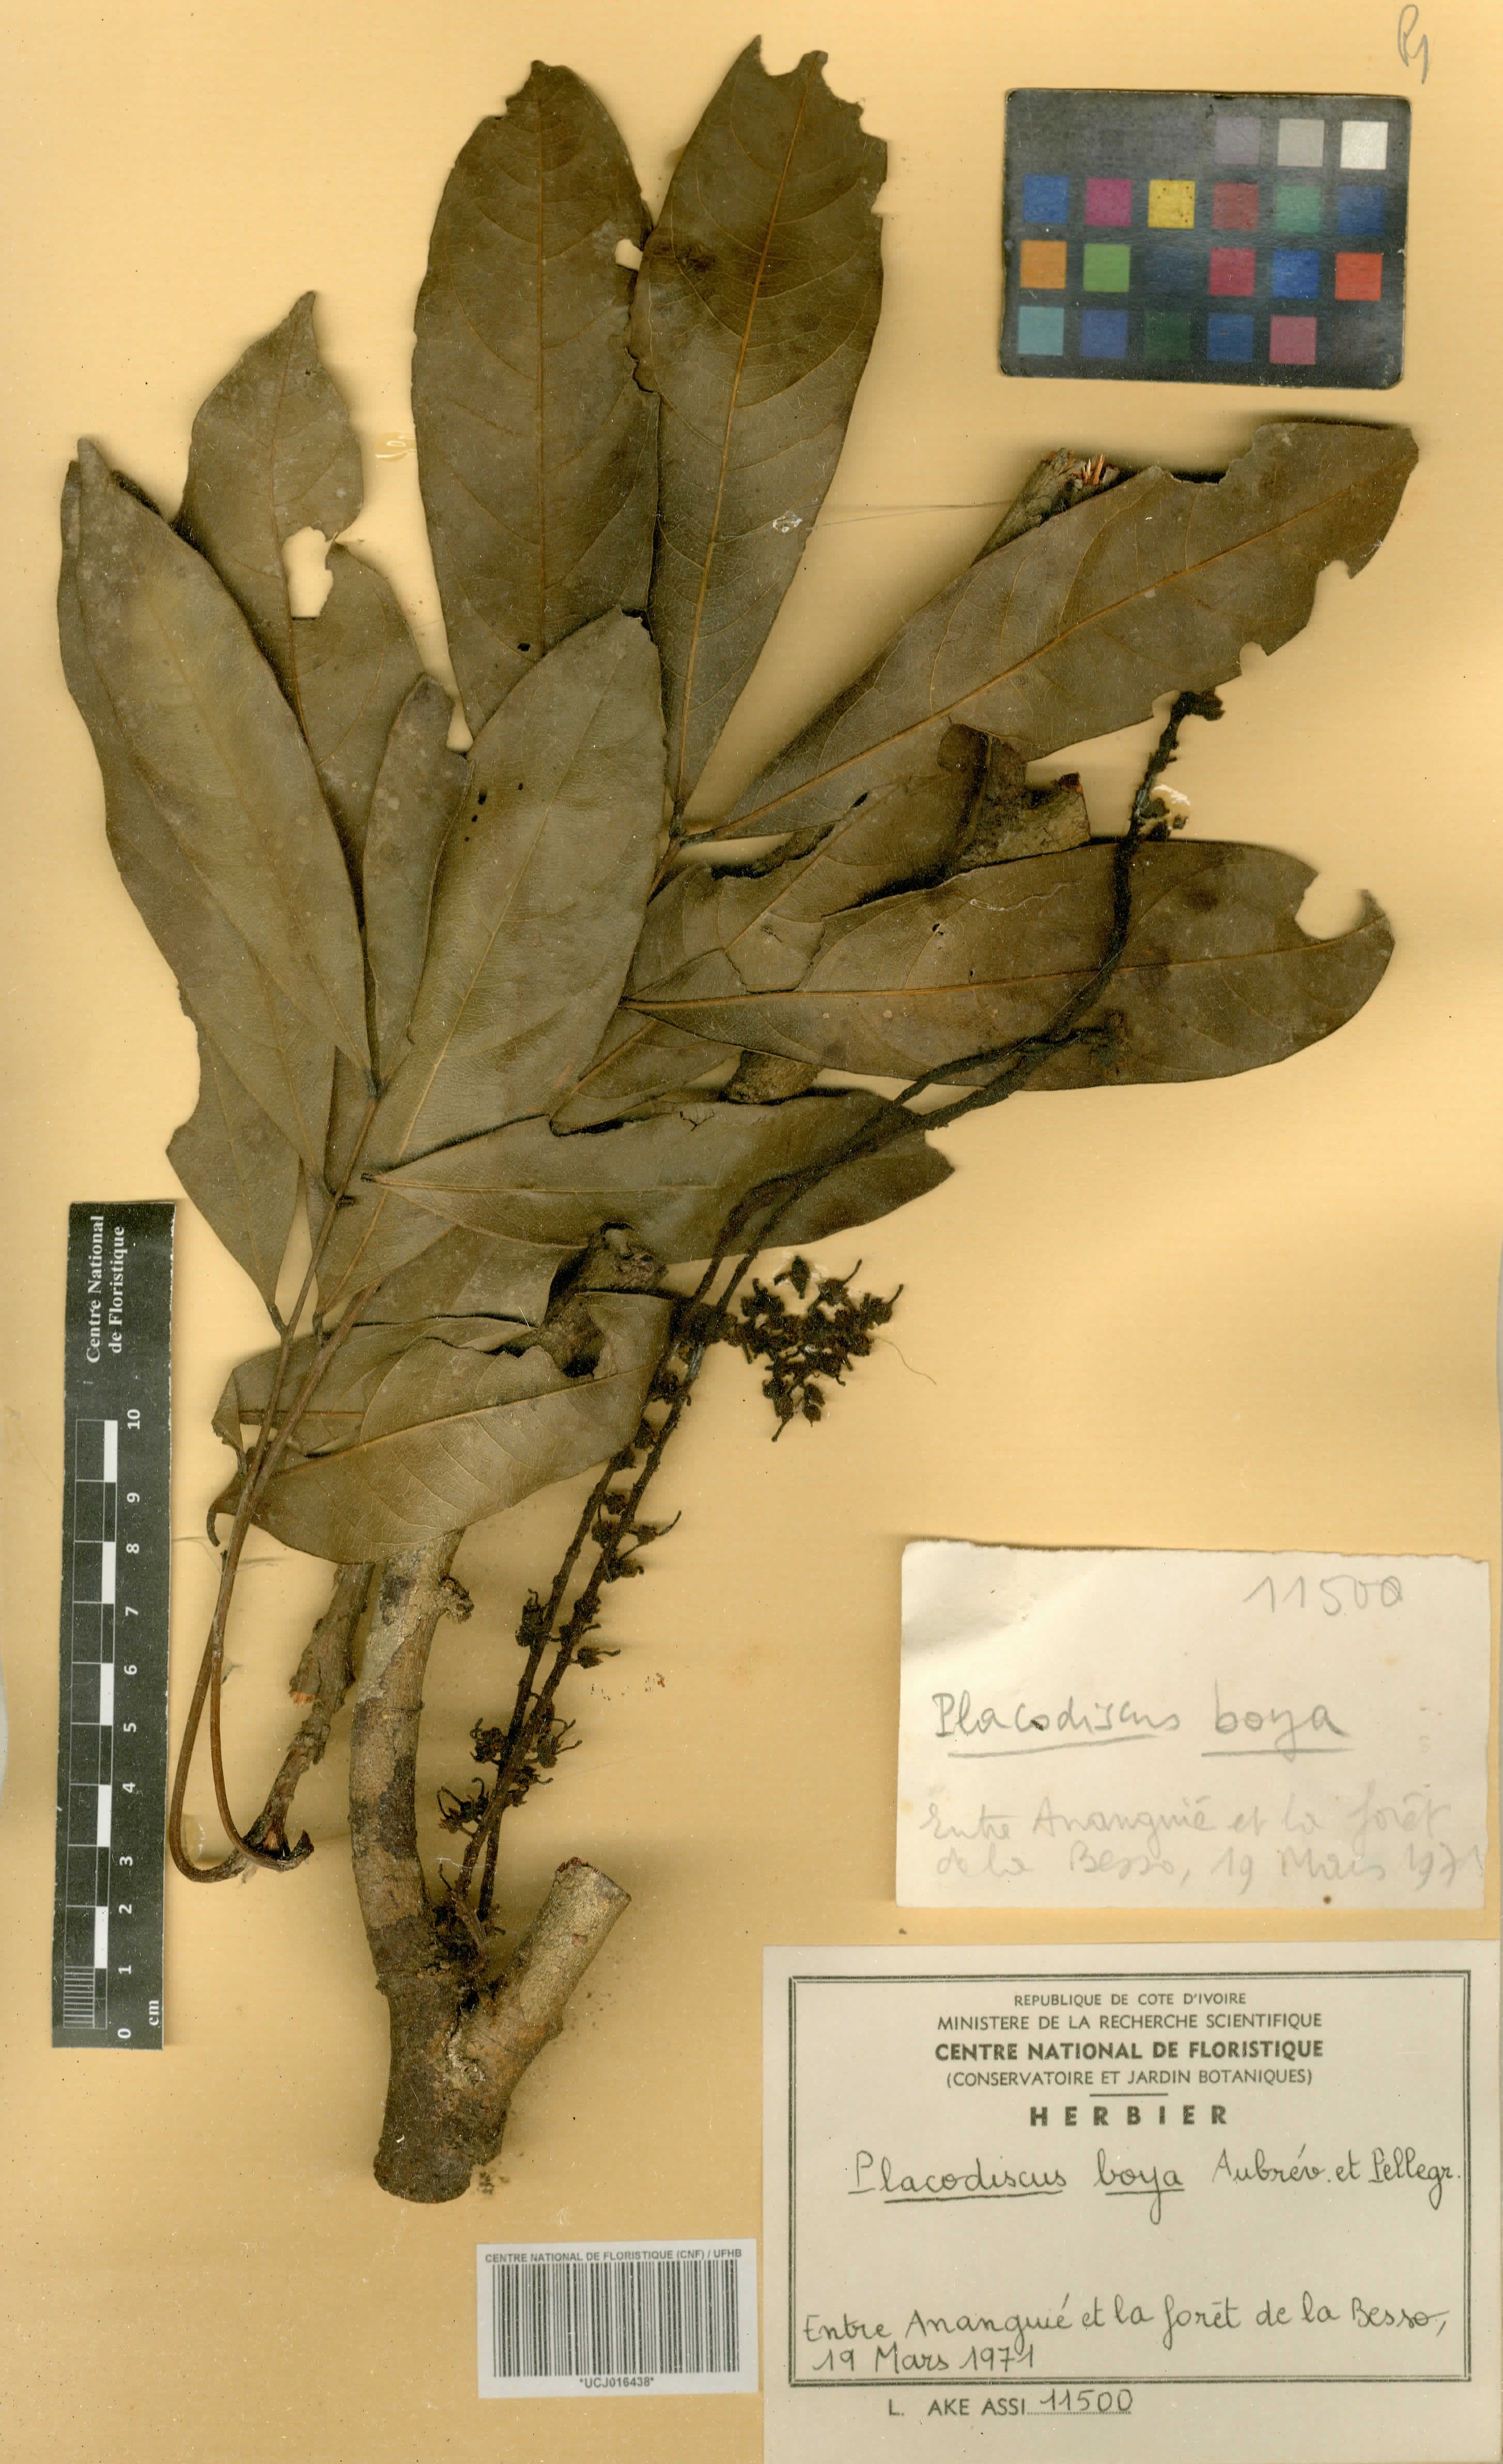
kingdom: Plantae
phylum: Tracheophyta
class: Magnoliopsida
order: Sapindales
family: Sapindaceae
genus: Placodiscus
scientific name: Placodiscus boya
